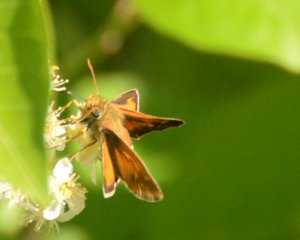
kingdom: Animalia
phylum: Arthropoda
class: Insecta
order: Lepidoptera
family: Hesperiidae
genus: Hesperia
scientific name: Hesperia sassacus
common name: Sassacus Skipper
